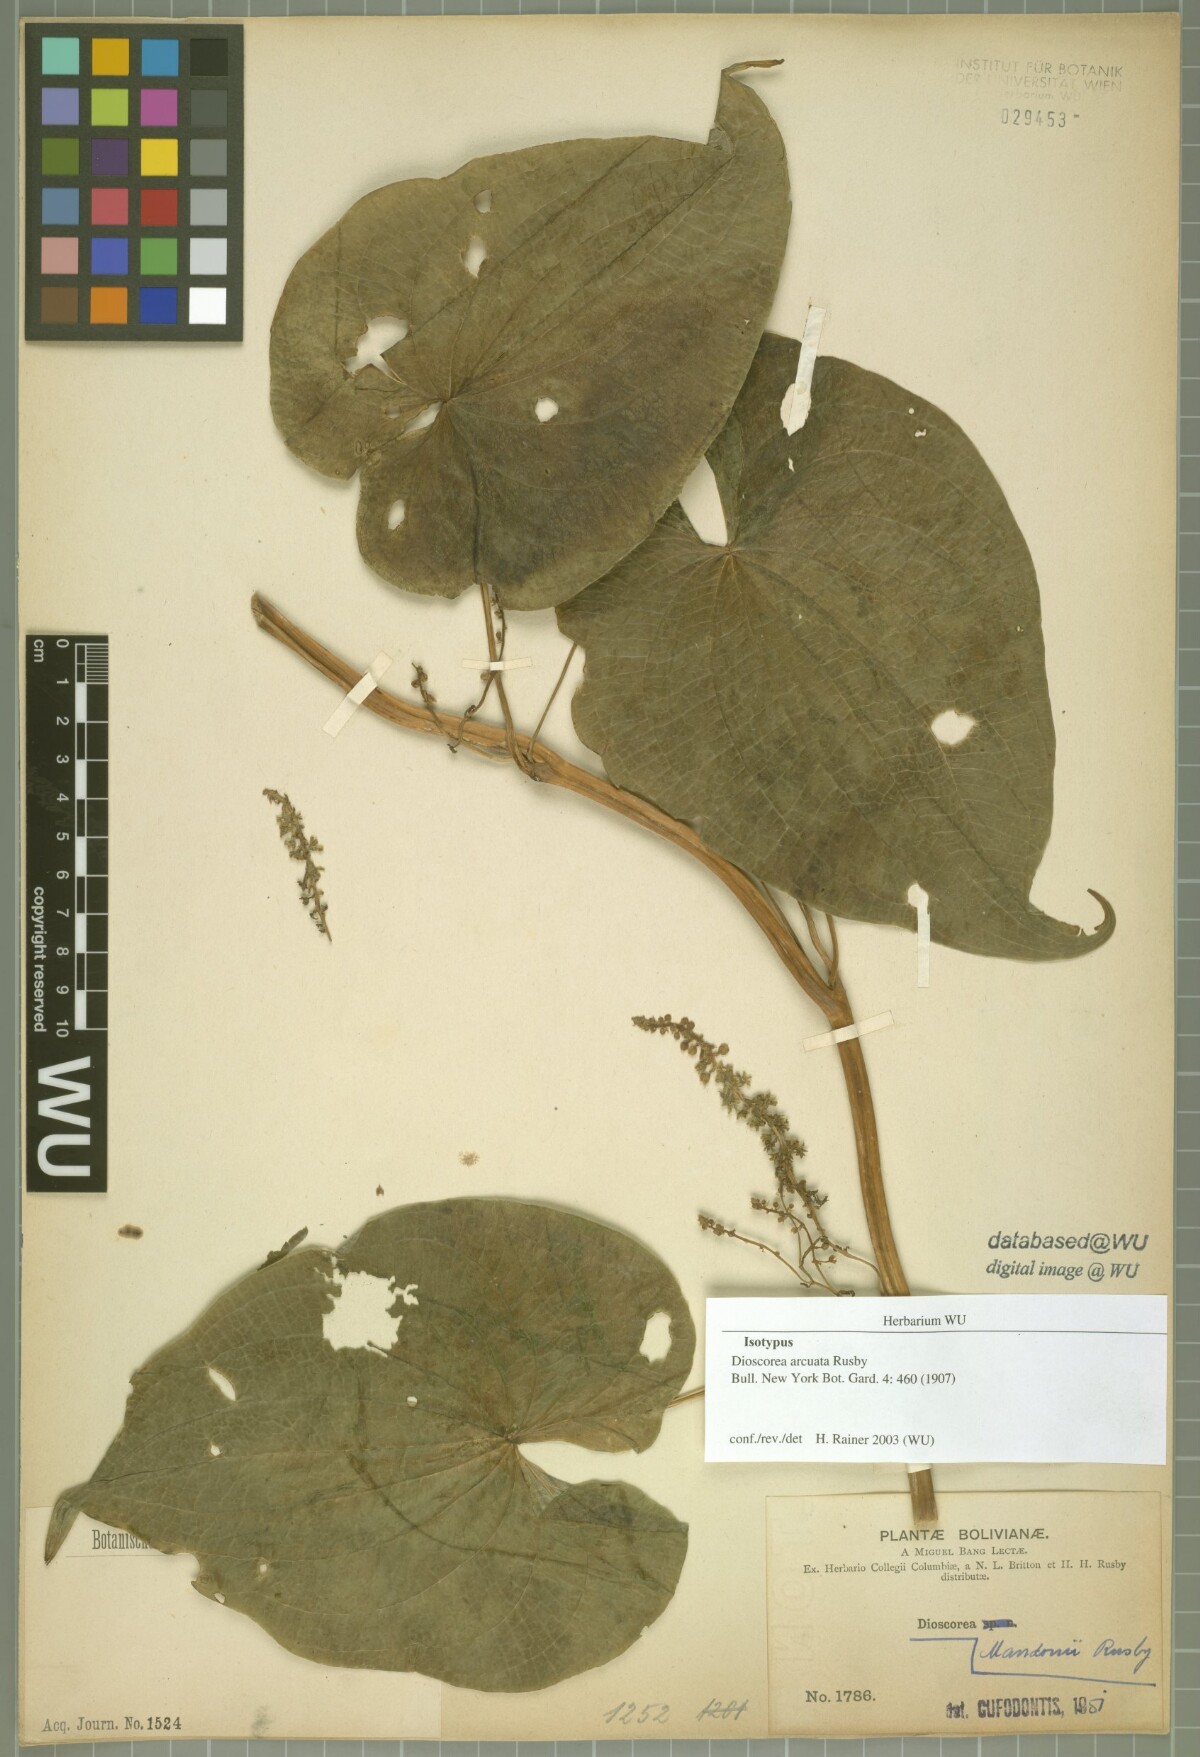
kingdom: Plantae
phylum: Tracheophyta
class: Liliopsida
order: Dioscoreales
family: Dioscoreaceae
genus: Dioscorea
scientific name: Dioscorea piperifolia
